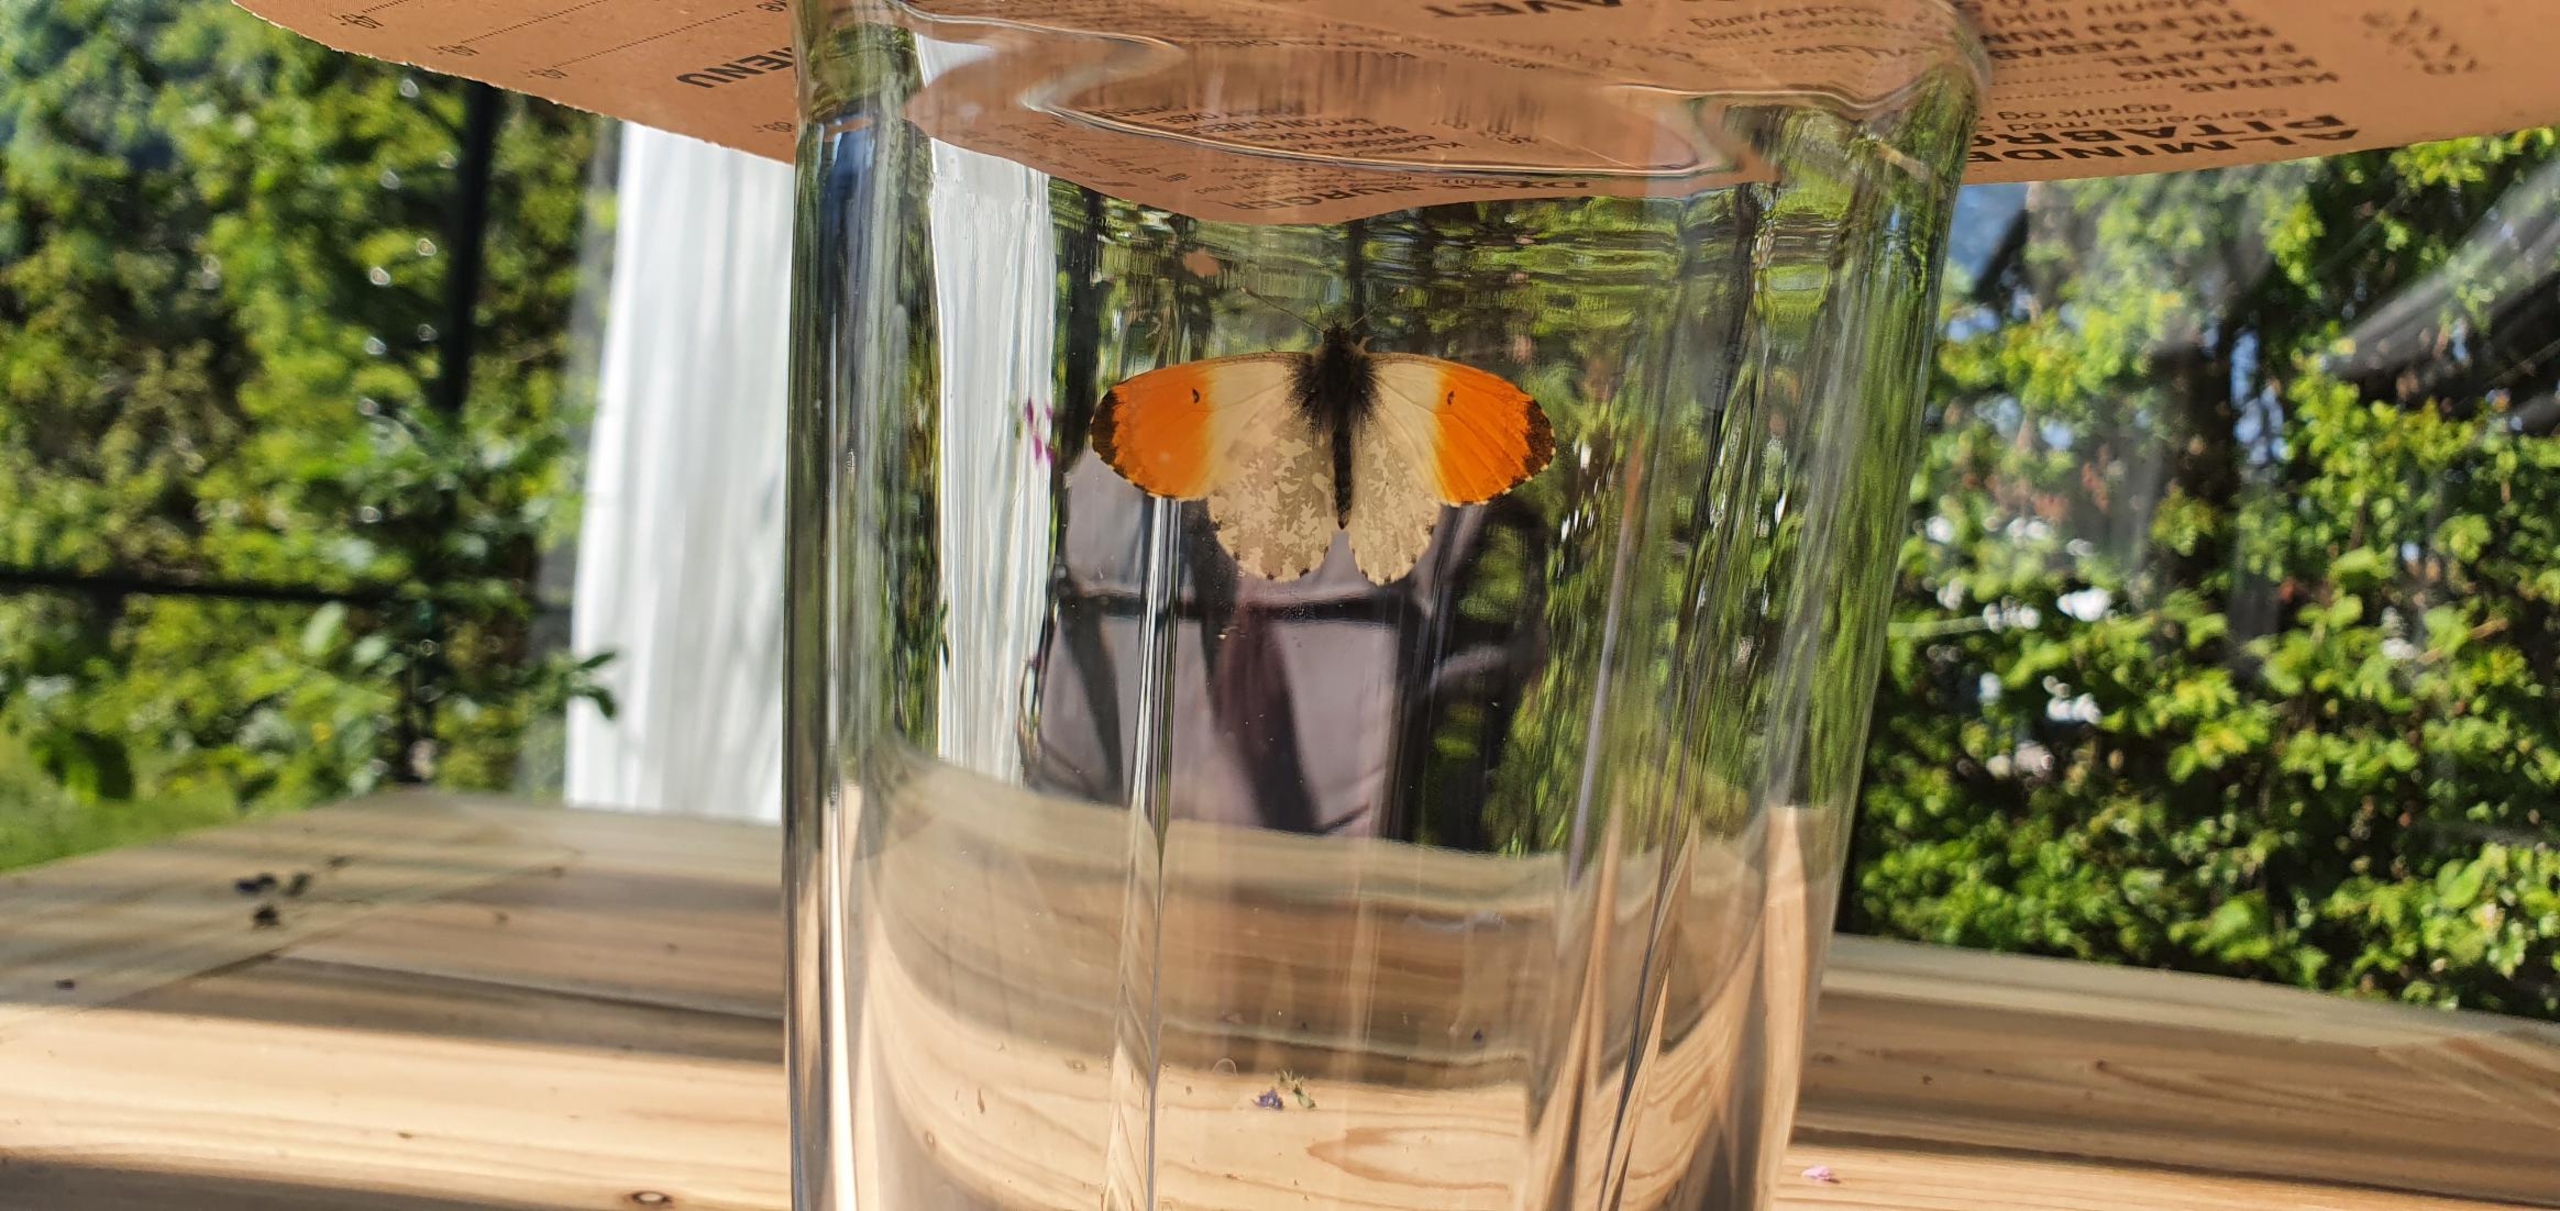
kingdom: Animalia
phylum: Arthropoda
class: Insecta
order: Lepidoptera
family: Pieridae
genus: Anthocharis
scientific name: Anthocharis cardamines
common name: Aurora
